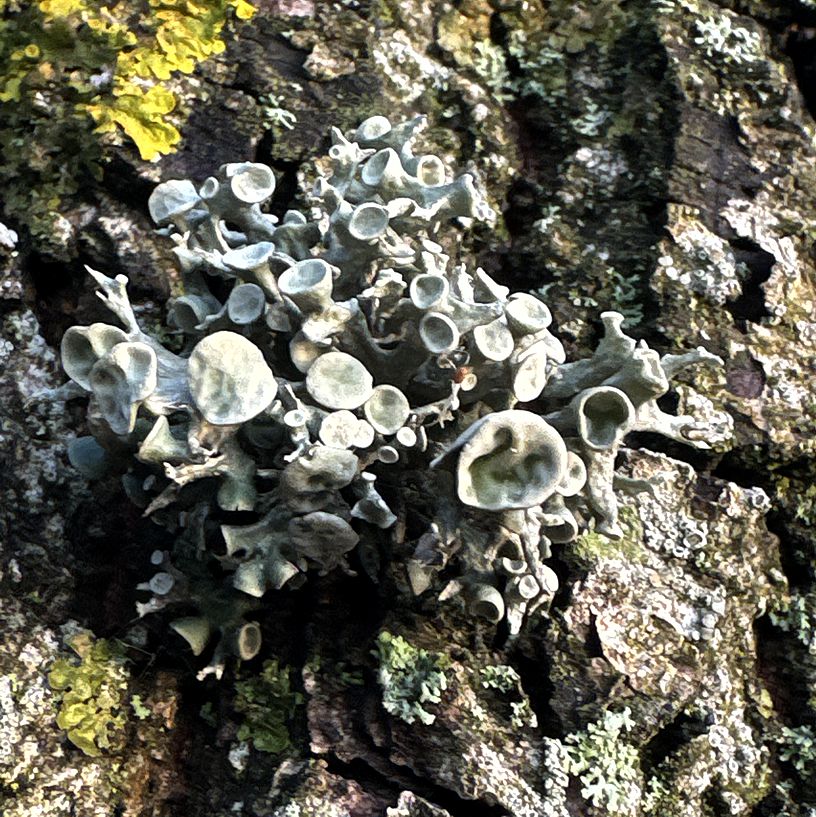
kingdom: Fungi
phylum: Ascomycota
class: Lecanoromycetes
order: Lecanorales
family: Ramalinaceae
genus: Ramalina
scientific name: Ramalina fastigiata
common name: tue-grenlav
